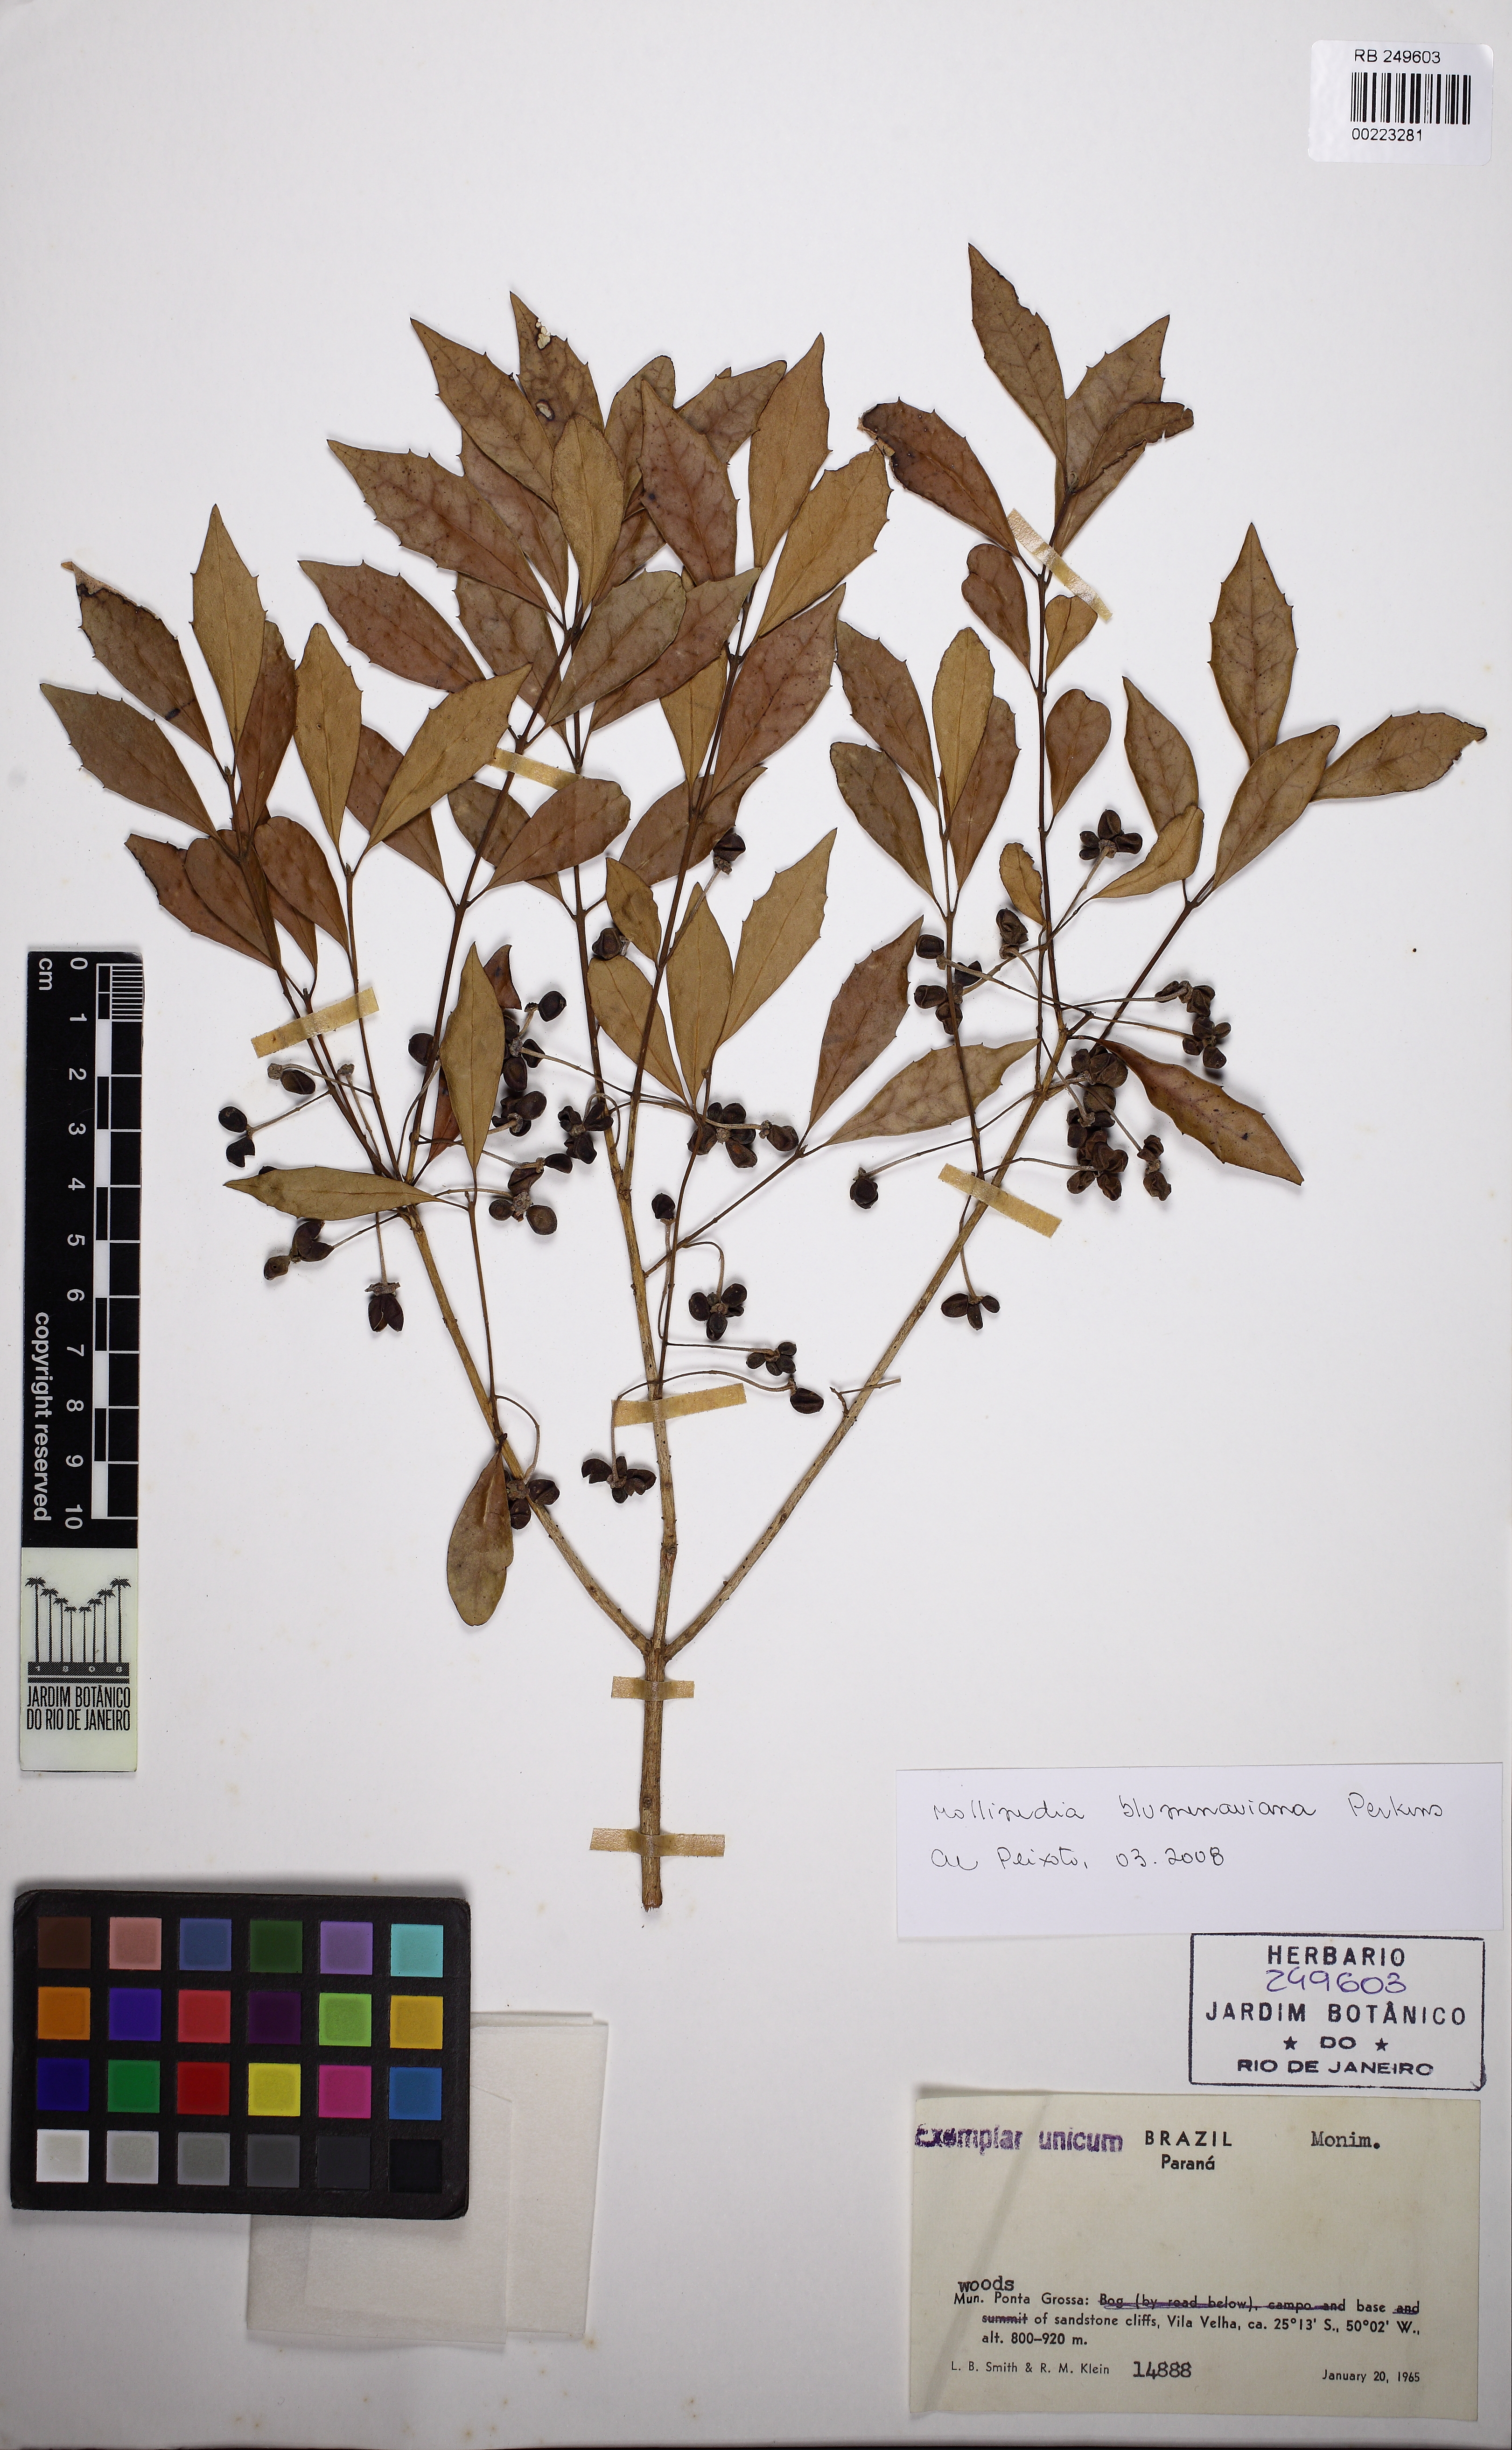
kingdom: Plantae
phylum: Tracheophyta
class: Magnoliopsida
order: Laurales
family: Monimiaceae
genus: Mollinedia
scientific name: Mollinedia pfitzeriana
